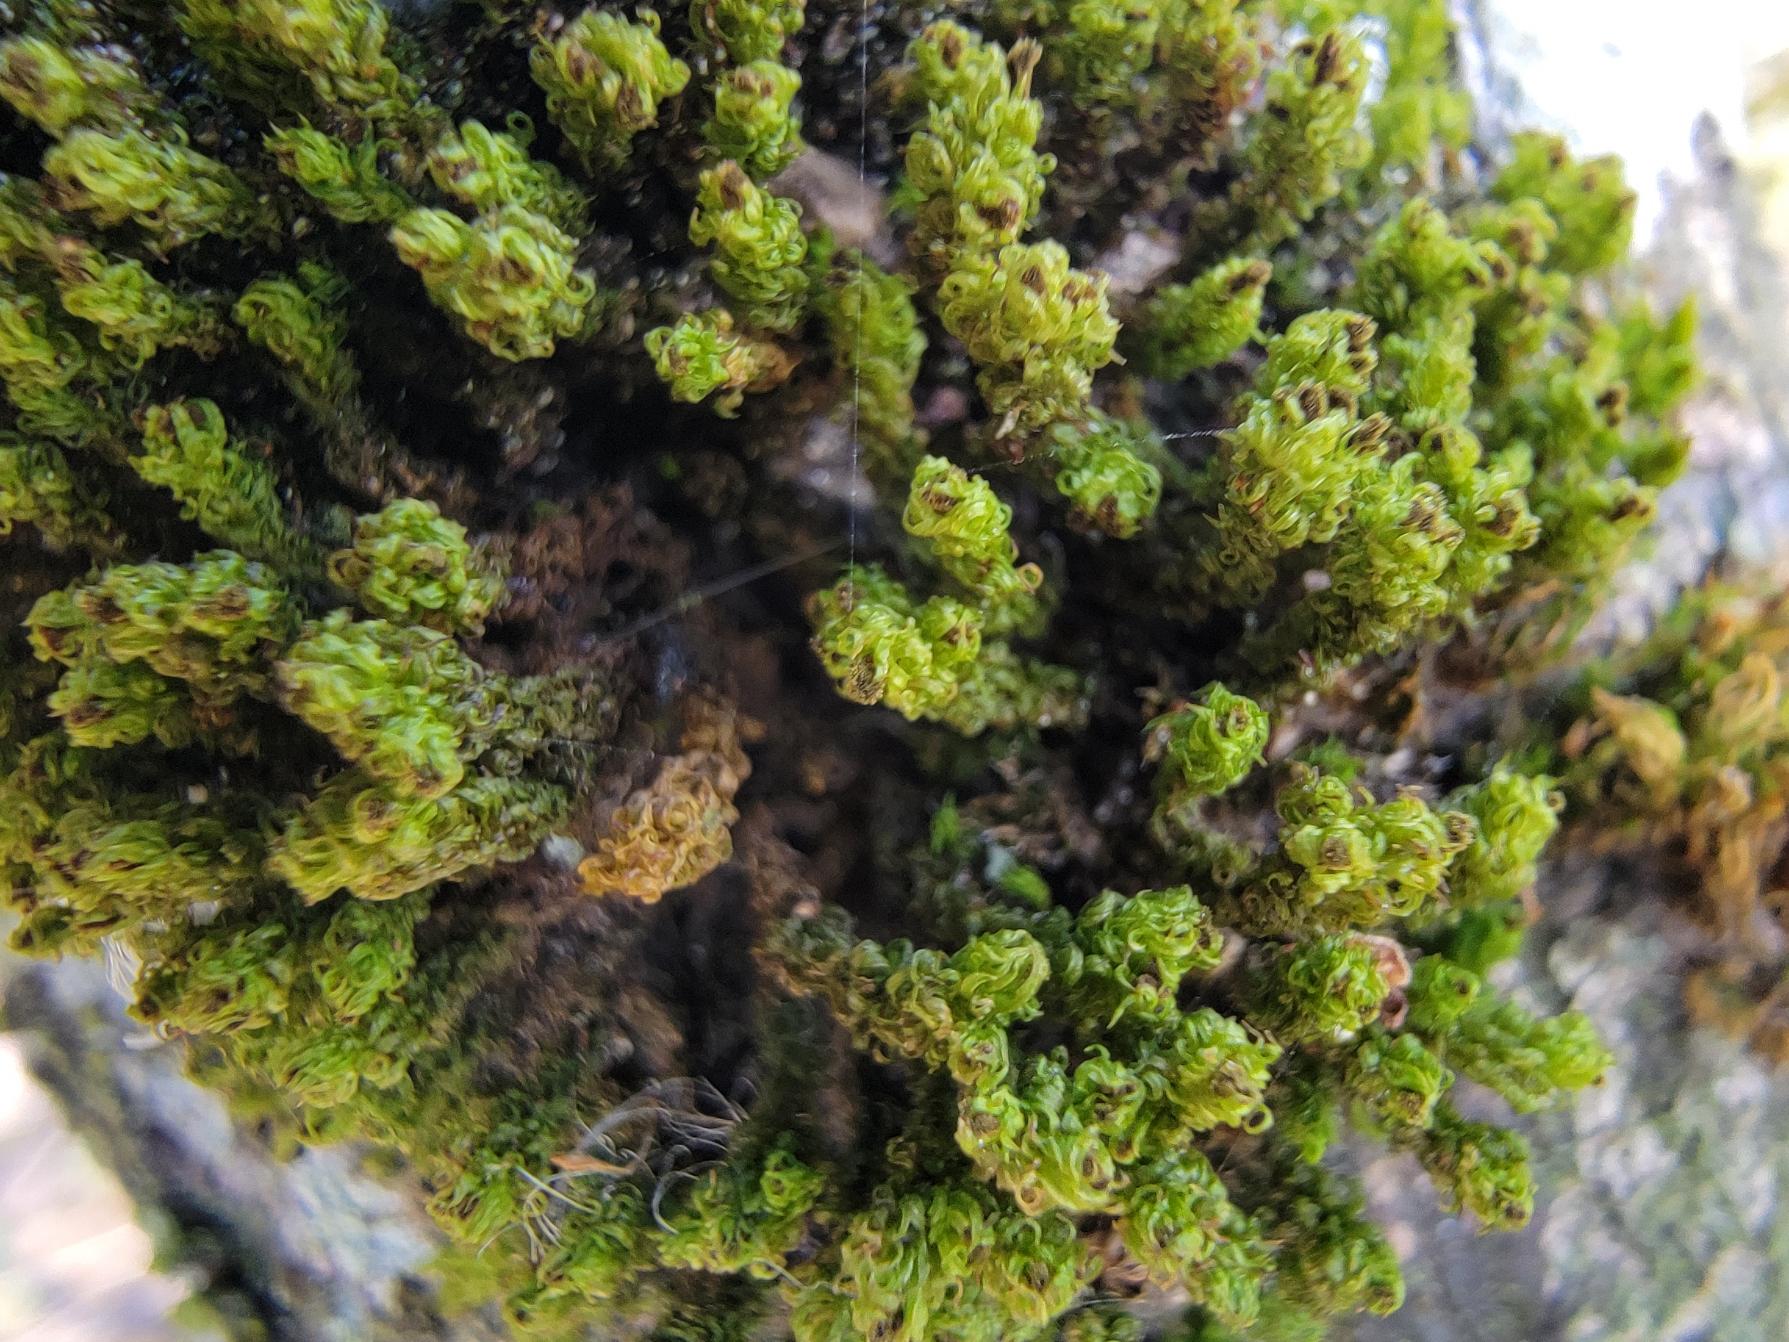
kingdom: Plantae
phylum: Bryophyta
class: Bryopsida
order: Orthotrichales
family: Orthotrichaceae
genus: Plenogemma
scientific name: Plenogemma phyllantha
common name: Stor låddenhætte
